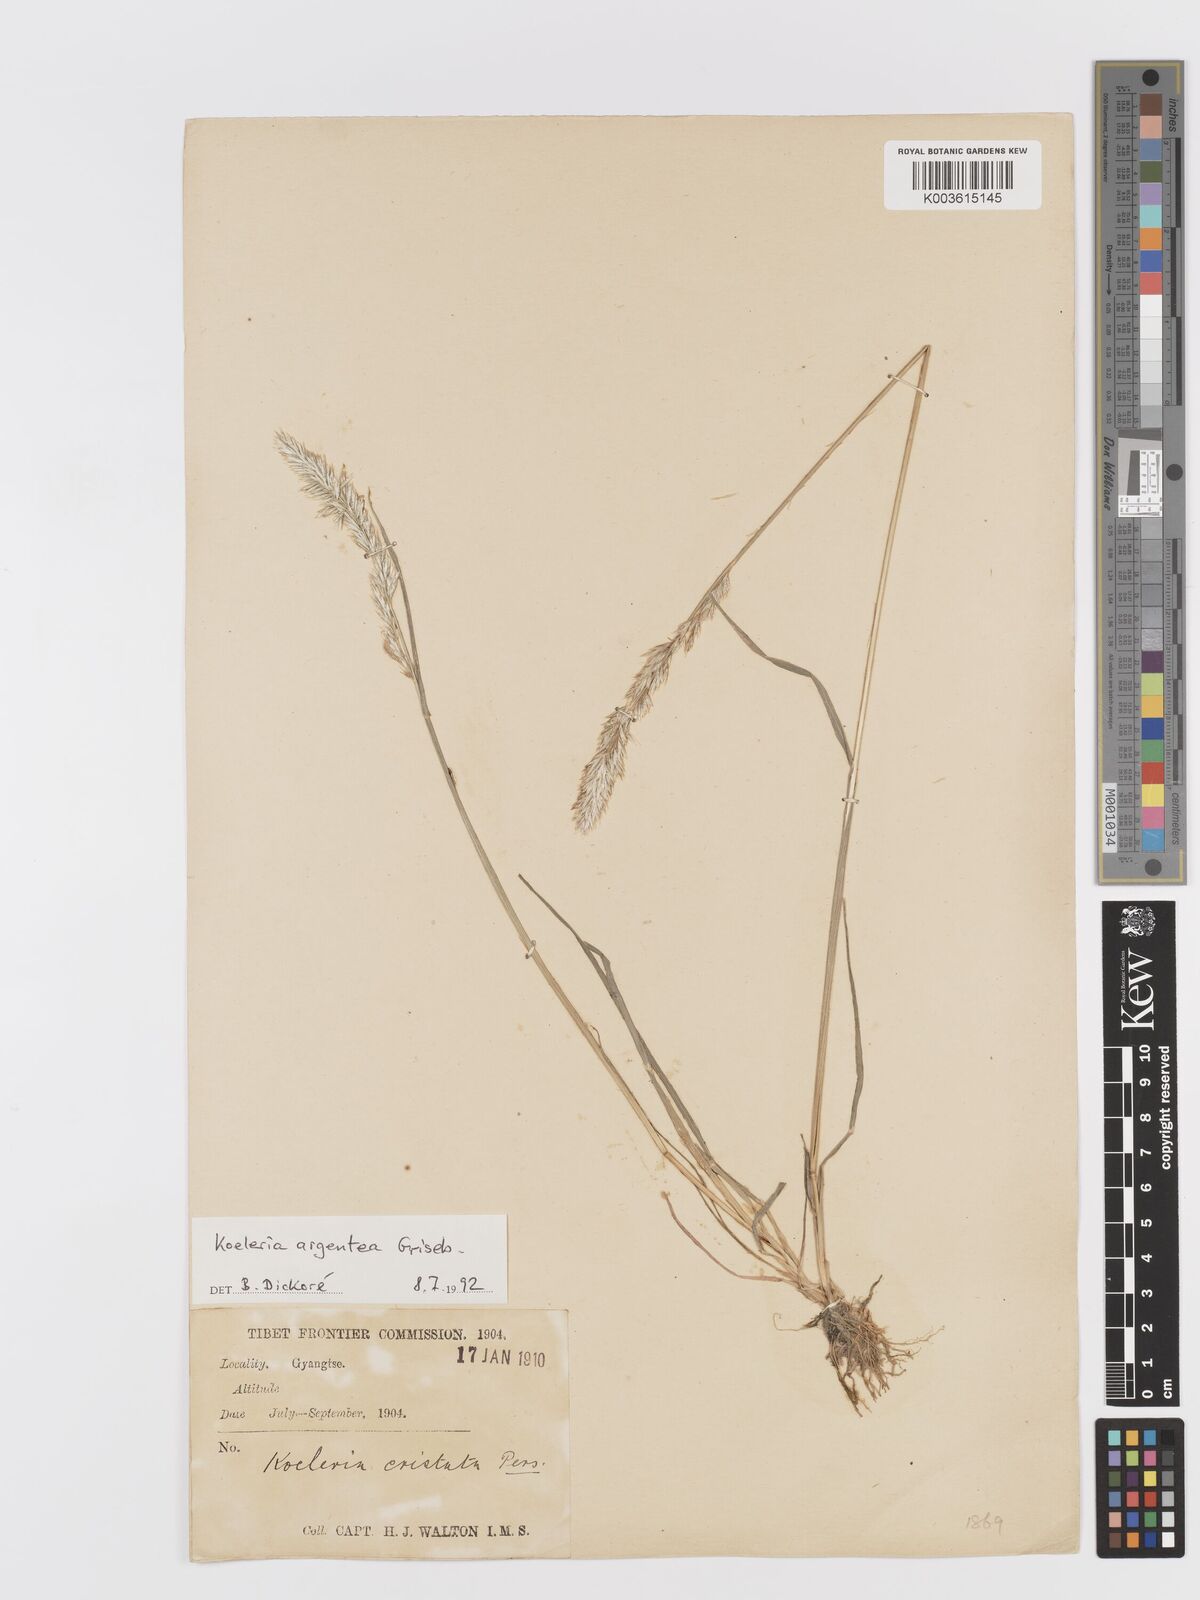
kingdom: Plantae
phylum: Tracheophyta
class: Liliopsida
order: Poales
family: Poaceae
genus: Koeleria
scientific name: Koeleria argentea
